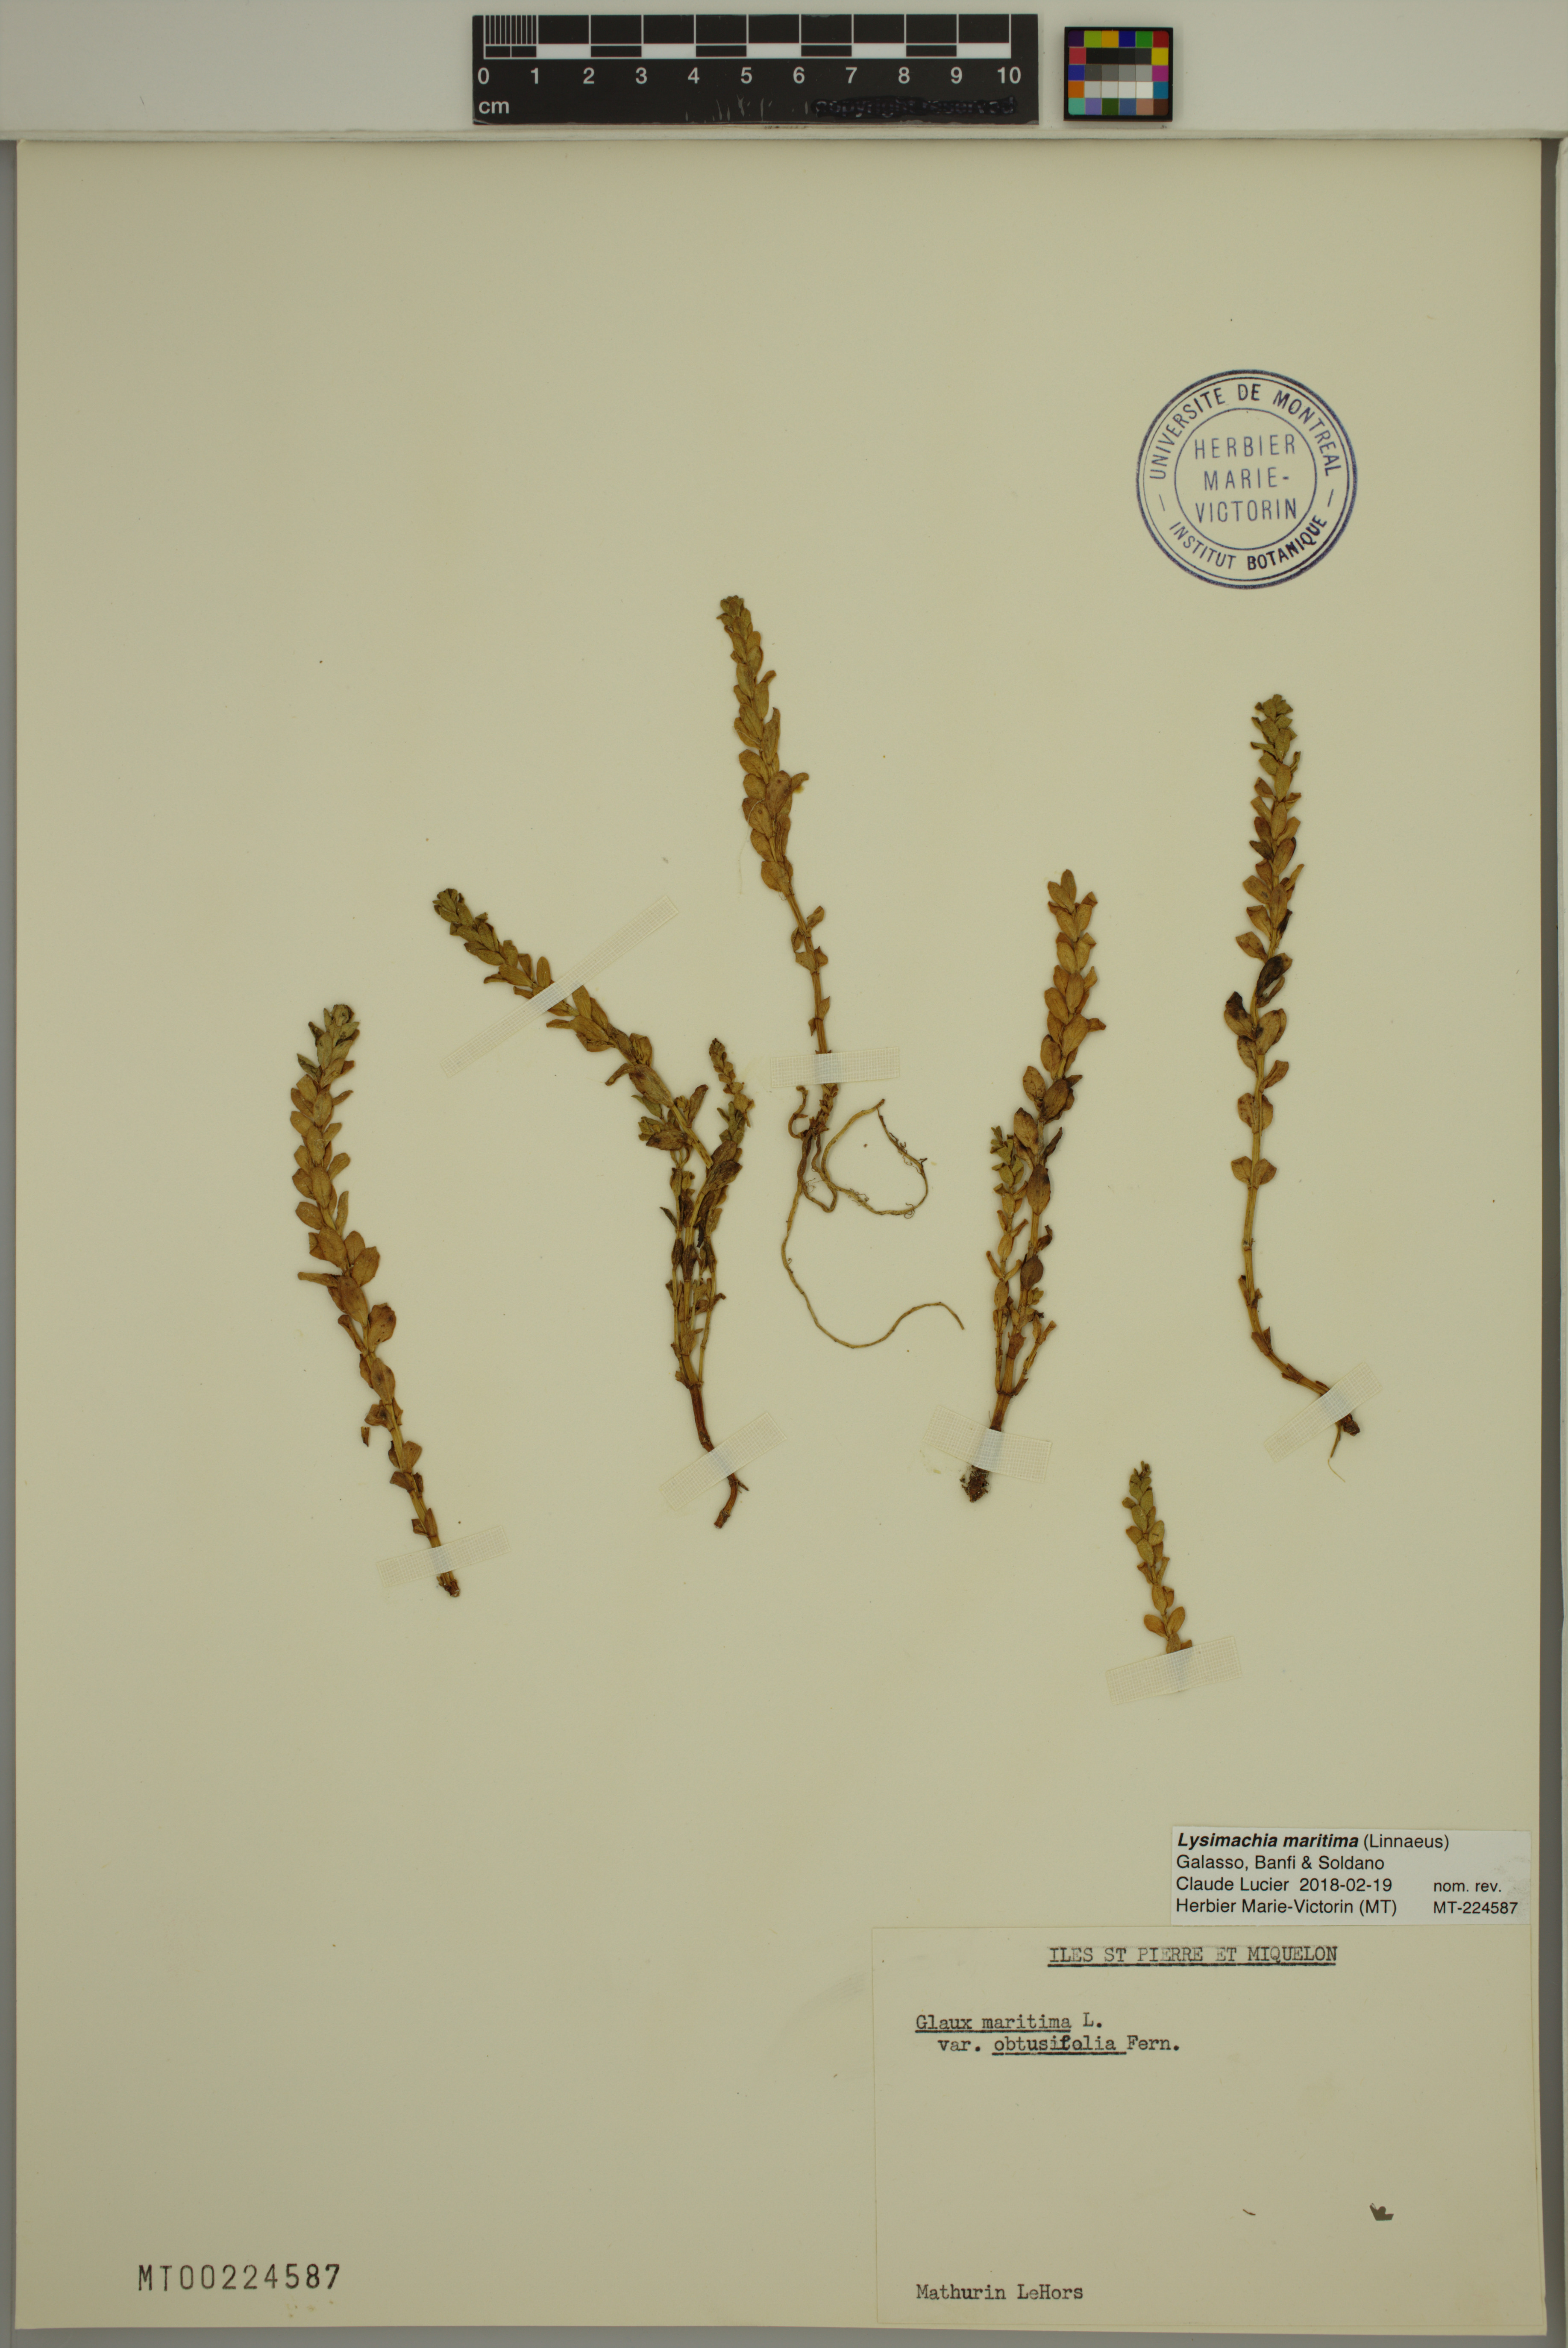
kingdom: Plantae
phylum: Tracheophyta
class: Magnoliopsida
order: Ericales
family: Primulaceae
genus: Lysimachia
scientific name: Lysimachia maritima
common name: Sea milkwort
